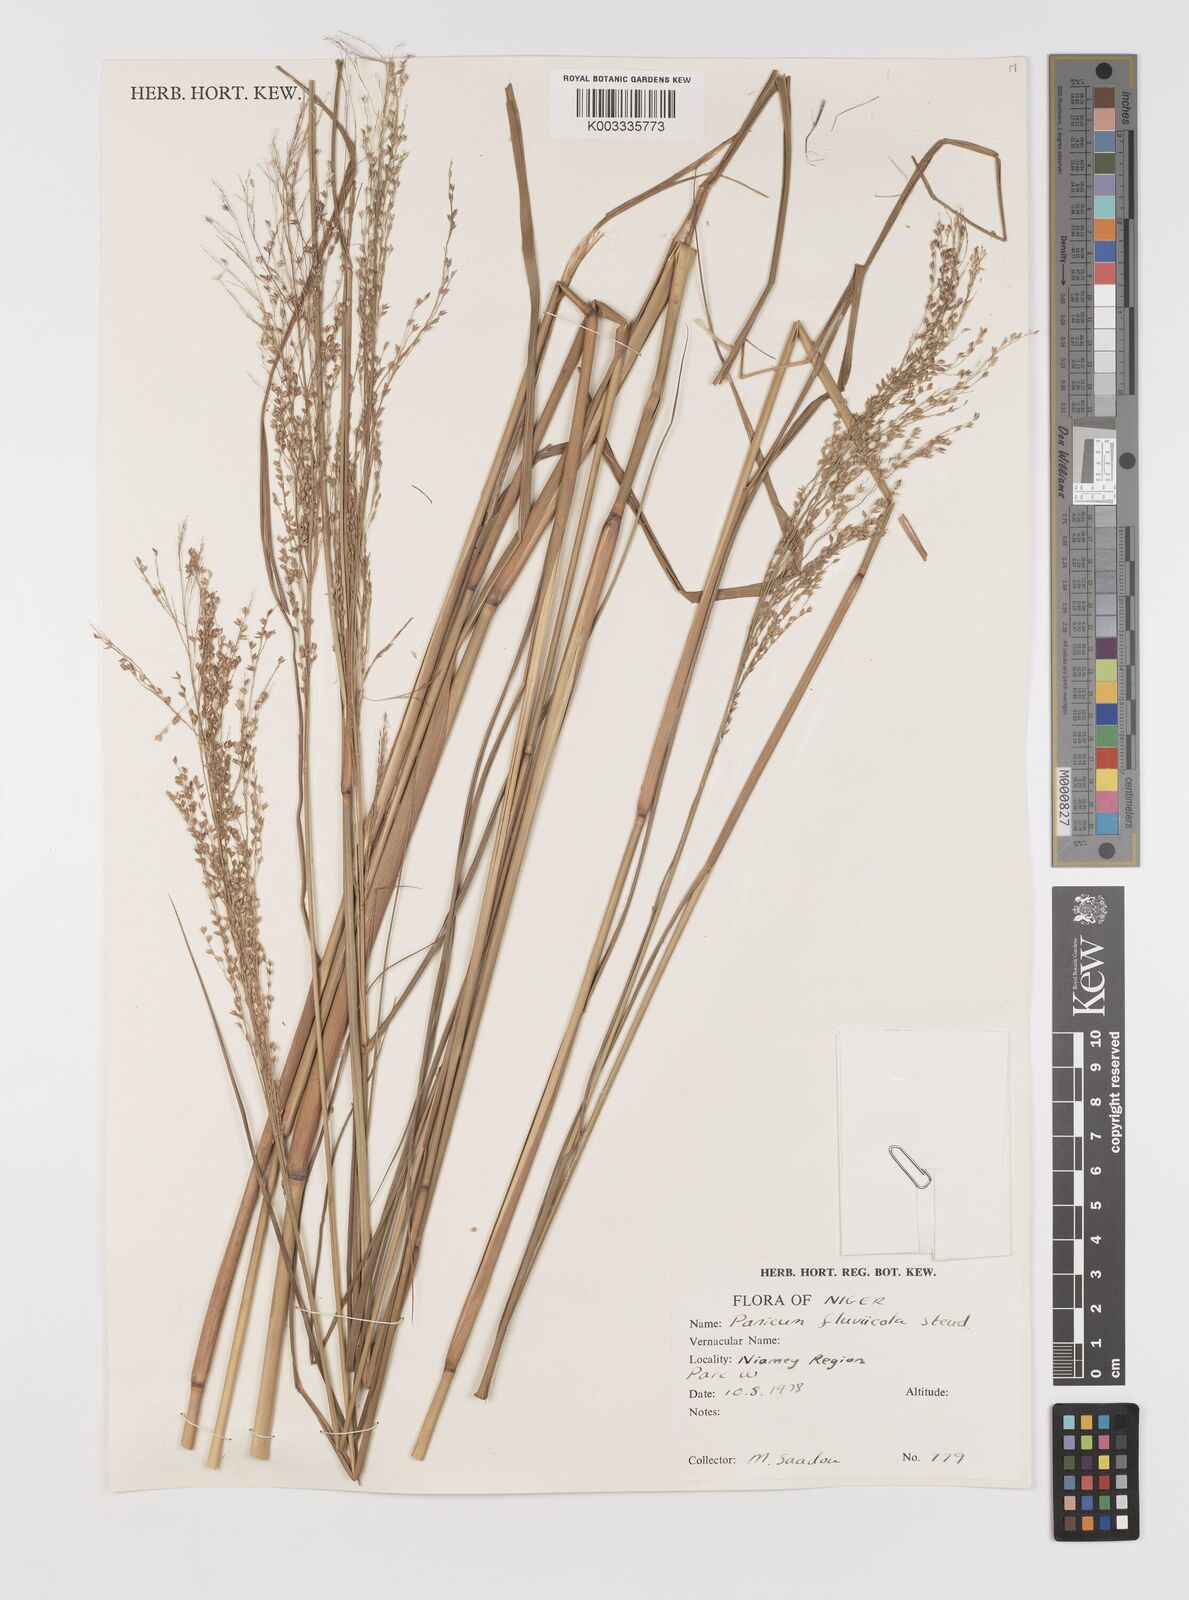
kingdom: Plantae
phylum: Tracheophyta
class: Liliopsida
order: Poales
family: Poaceae
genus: Panicum
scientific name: Panicum fluviicola
